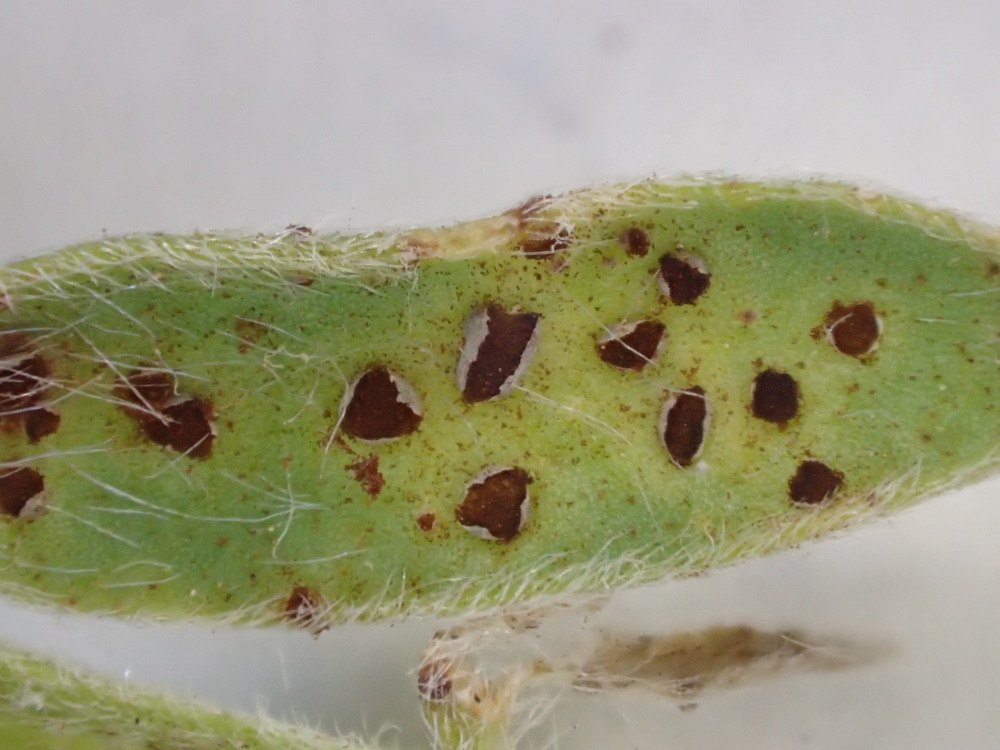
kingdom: Fungi
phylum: Basidiomycota
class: Pucciniomycetes
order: Pucciniales
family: Pucciniaceae
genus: Uromyces
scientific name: Uromyces anthyllidis
